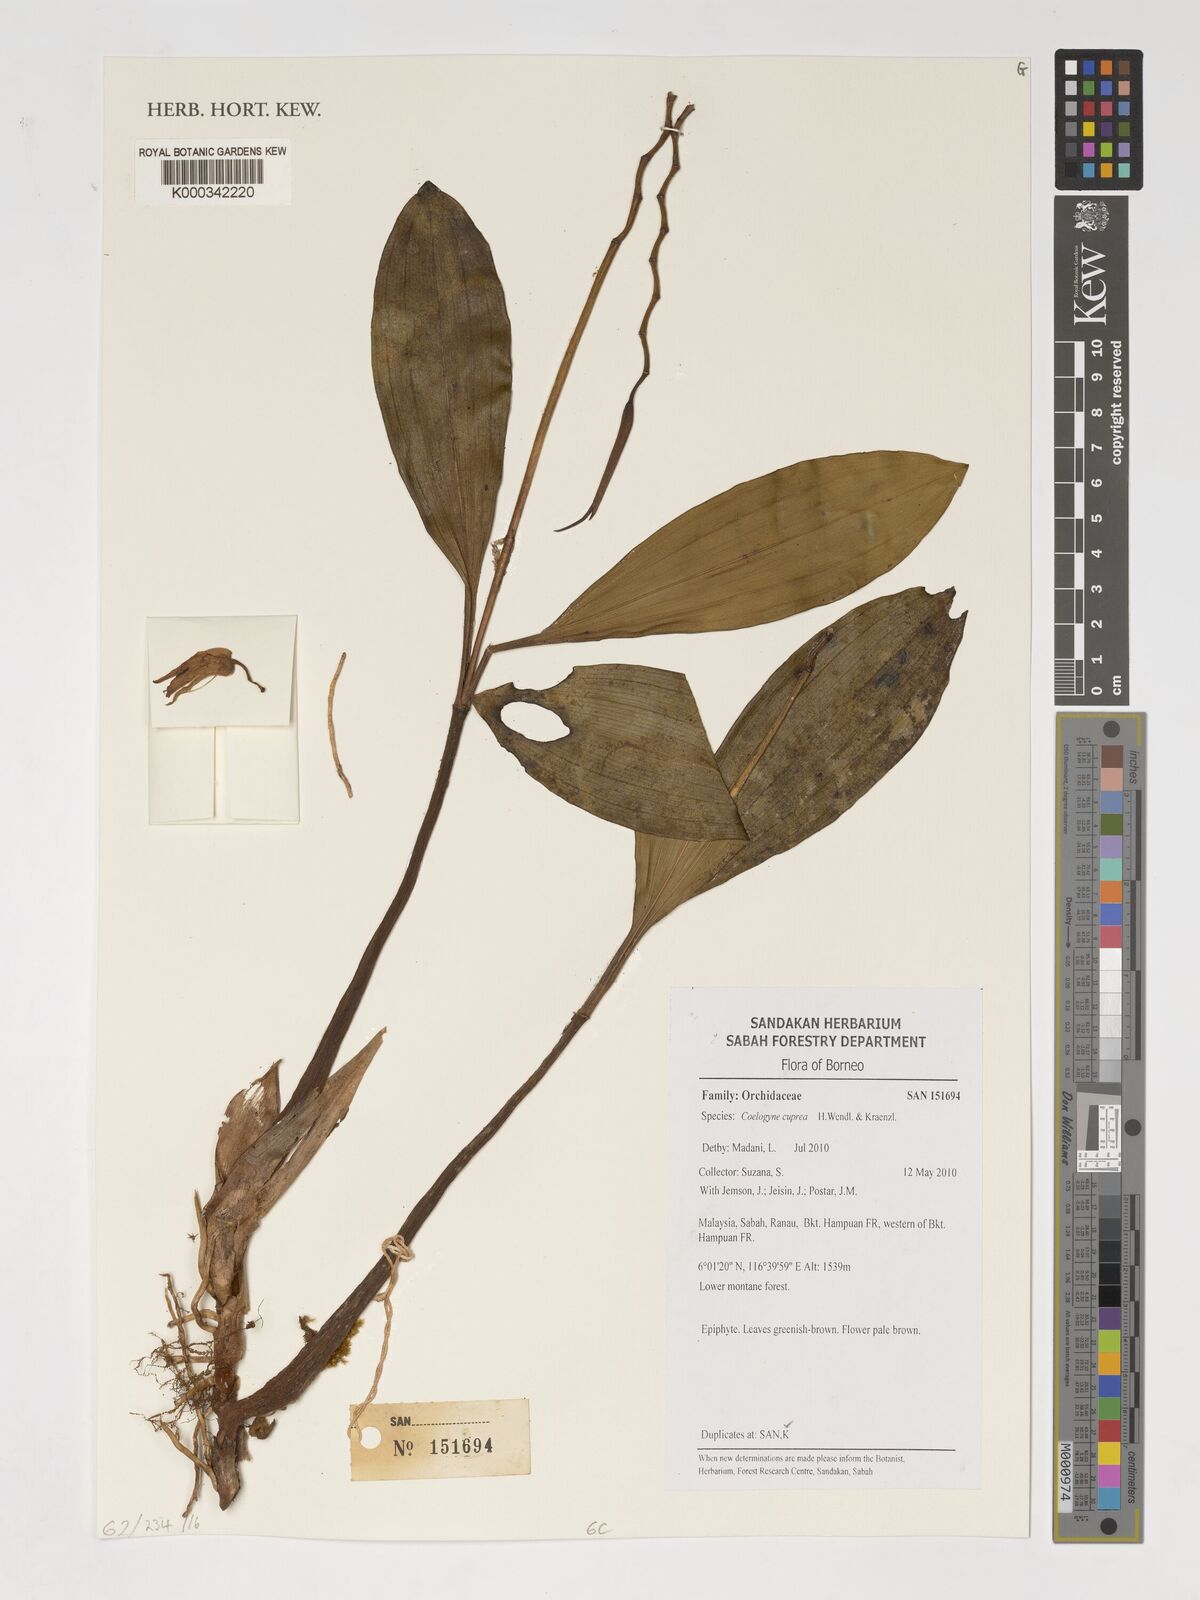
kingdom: Plantae
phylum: Tracheophyta
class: Liliopsida
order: Asparagales
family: Orchidaceae
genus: Coelogyne
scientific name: Coelogyne cuprea
